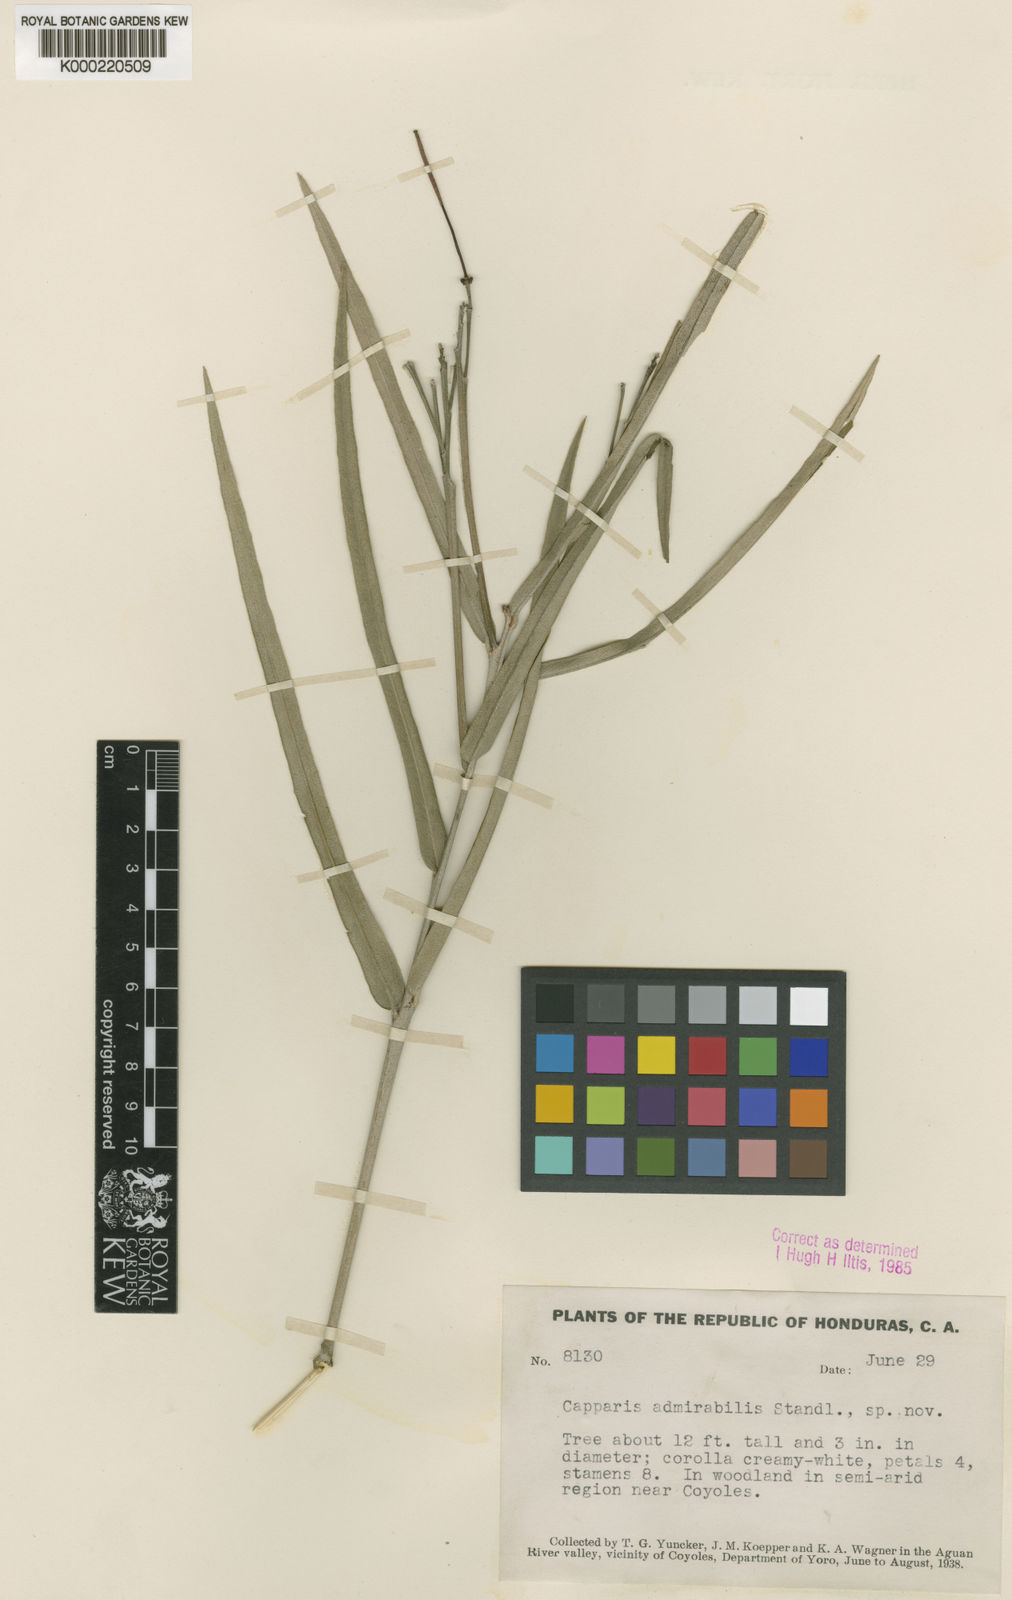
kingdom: Plantae
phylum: Tracheophyta
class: Magnoliopsida
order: Brassicales
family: Capparaceae
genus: Quadrella
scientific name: Quadrella lundellii
